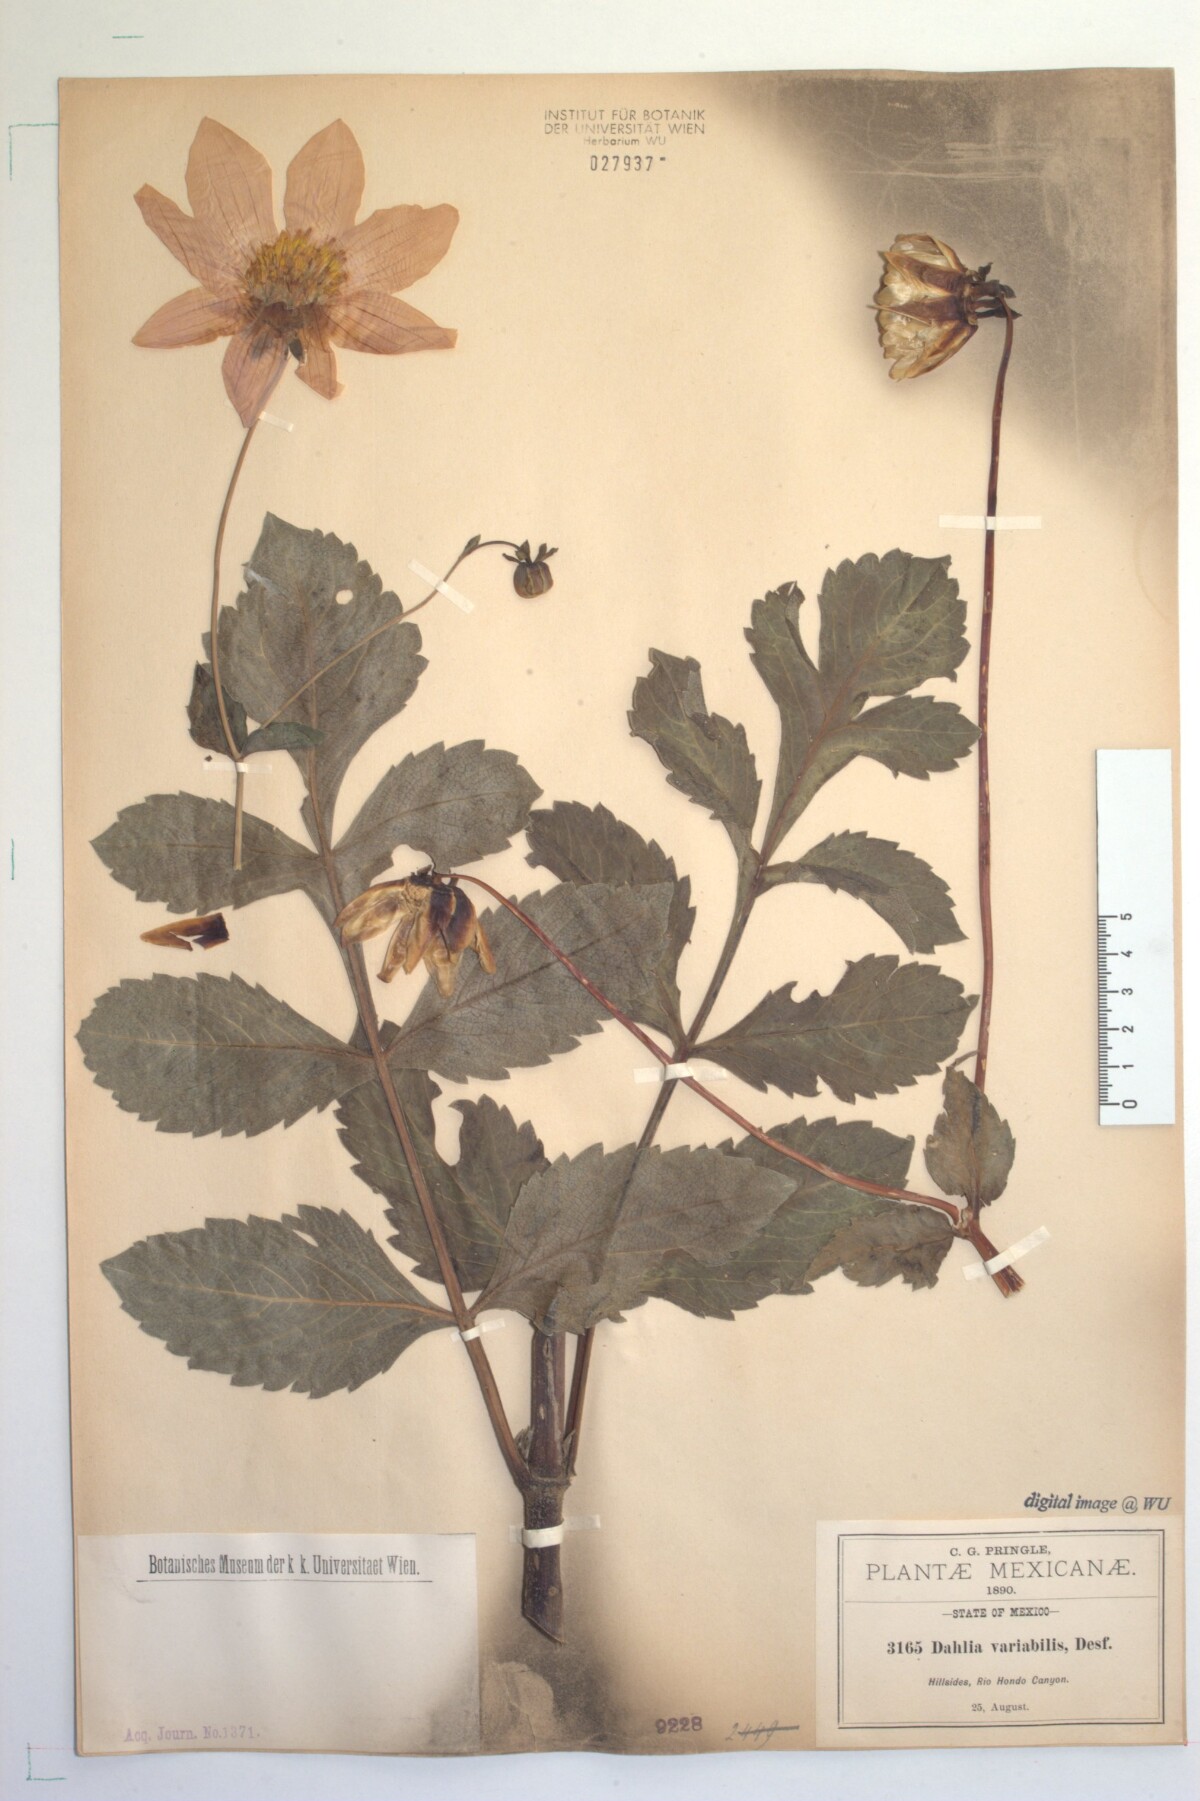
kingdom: Plantae
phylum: Tracheophyta
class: Magnoliopsida
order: Asterales
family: Asteraceae
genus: Dahlia
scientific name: Dahlia sorensenii
